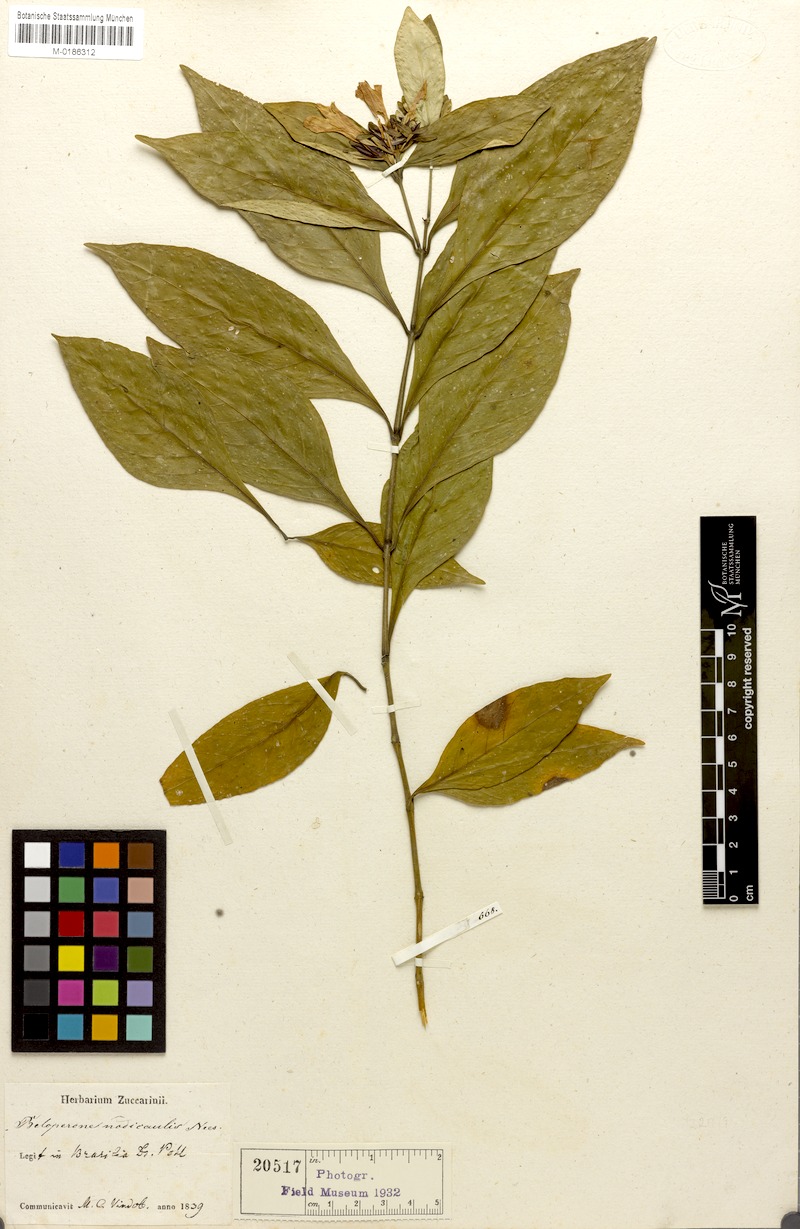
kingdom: Plantae
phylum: Tracheophyta
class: Magnoliopsida
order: Lamiales
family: Acanthaceae
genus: Justicia
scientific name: Justicia nodicaulis
